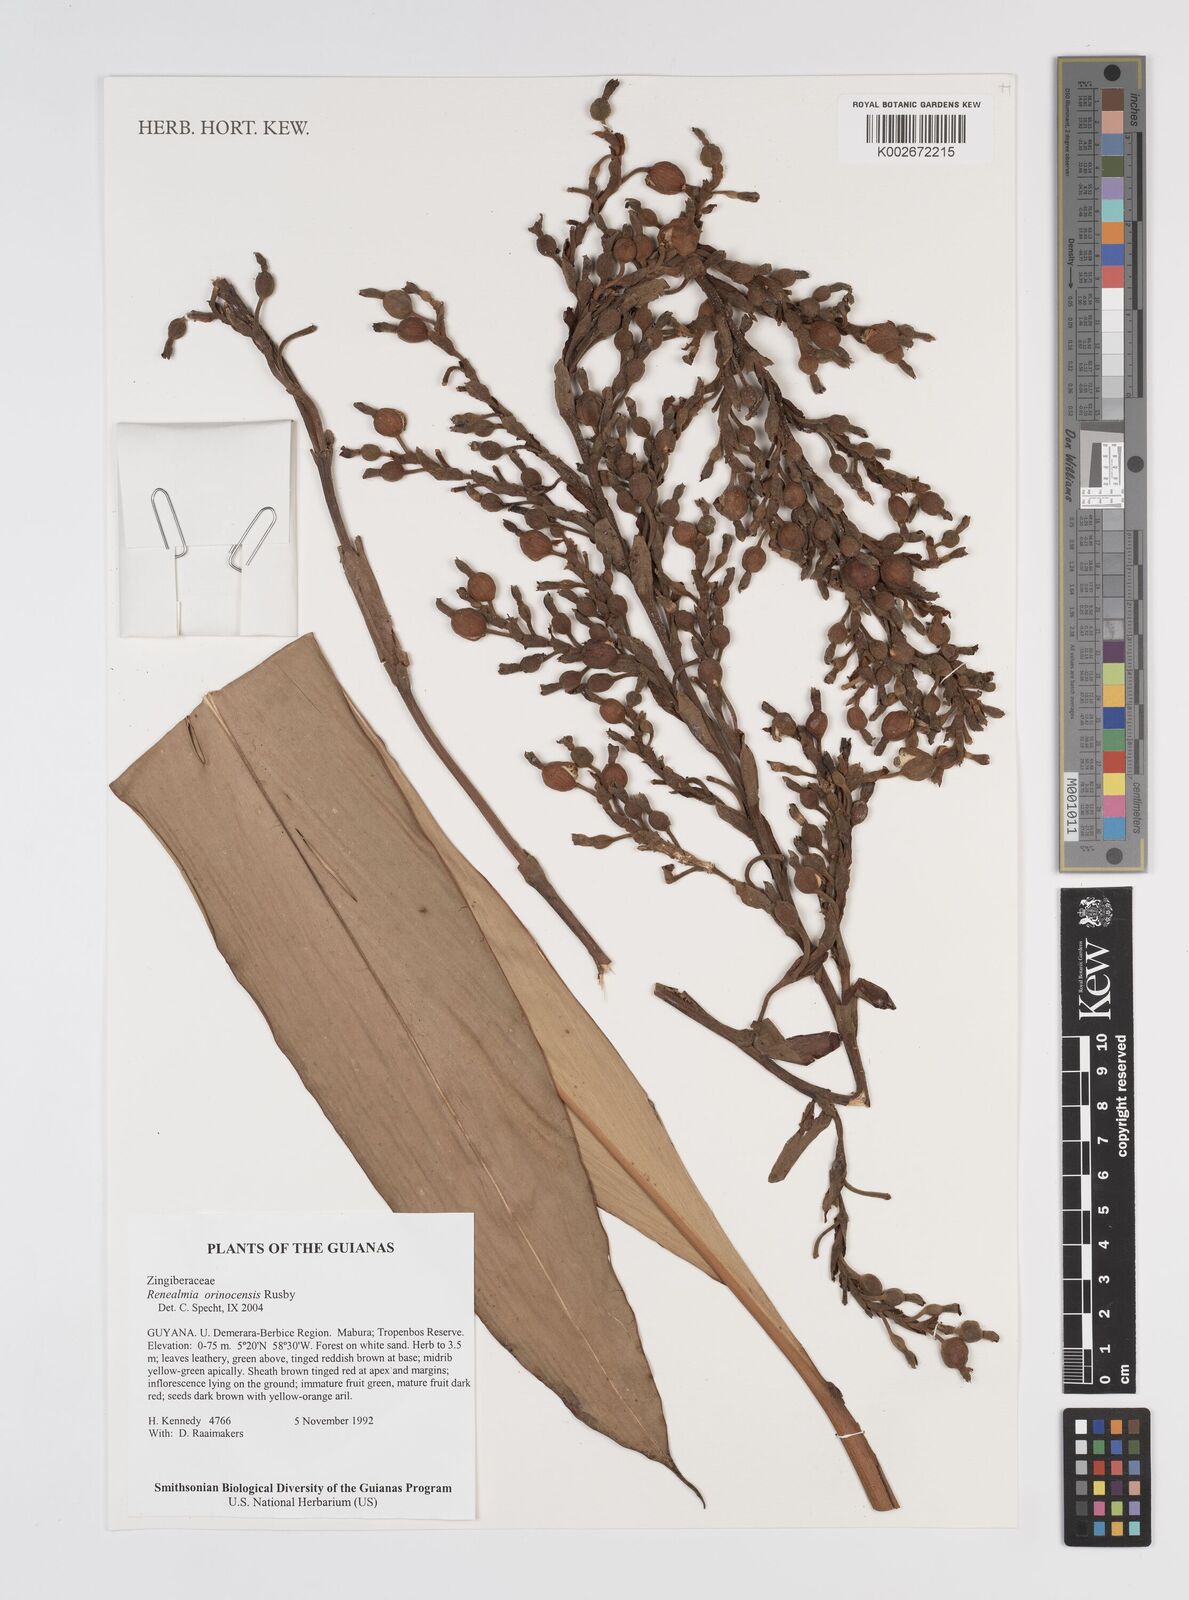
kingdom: Plantae
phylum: Tracheophyta
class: Liliopsida
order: Zingiberales
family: Zingiberaceae
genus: Renealmia
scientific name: Renealmia orinocensis
